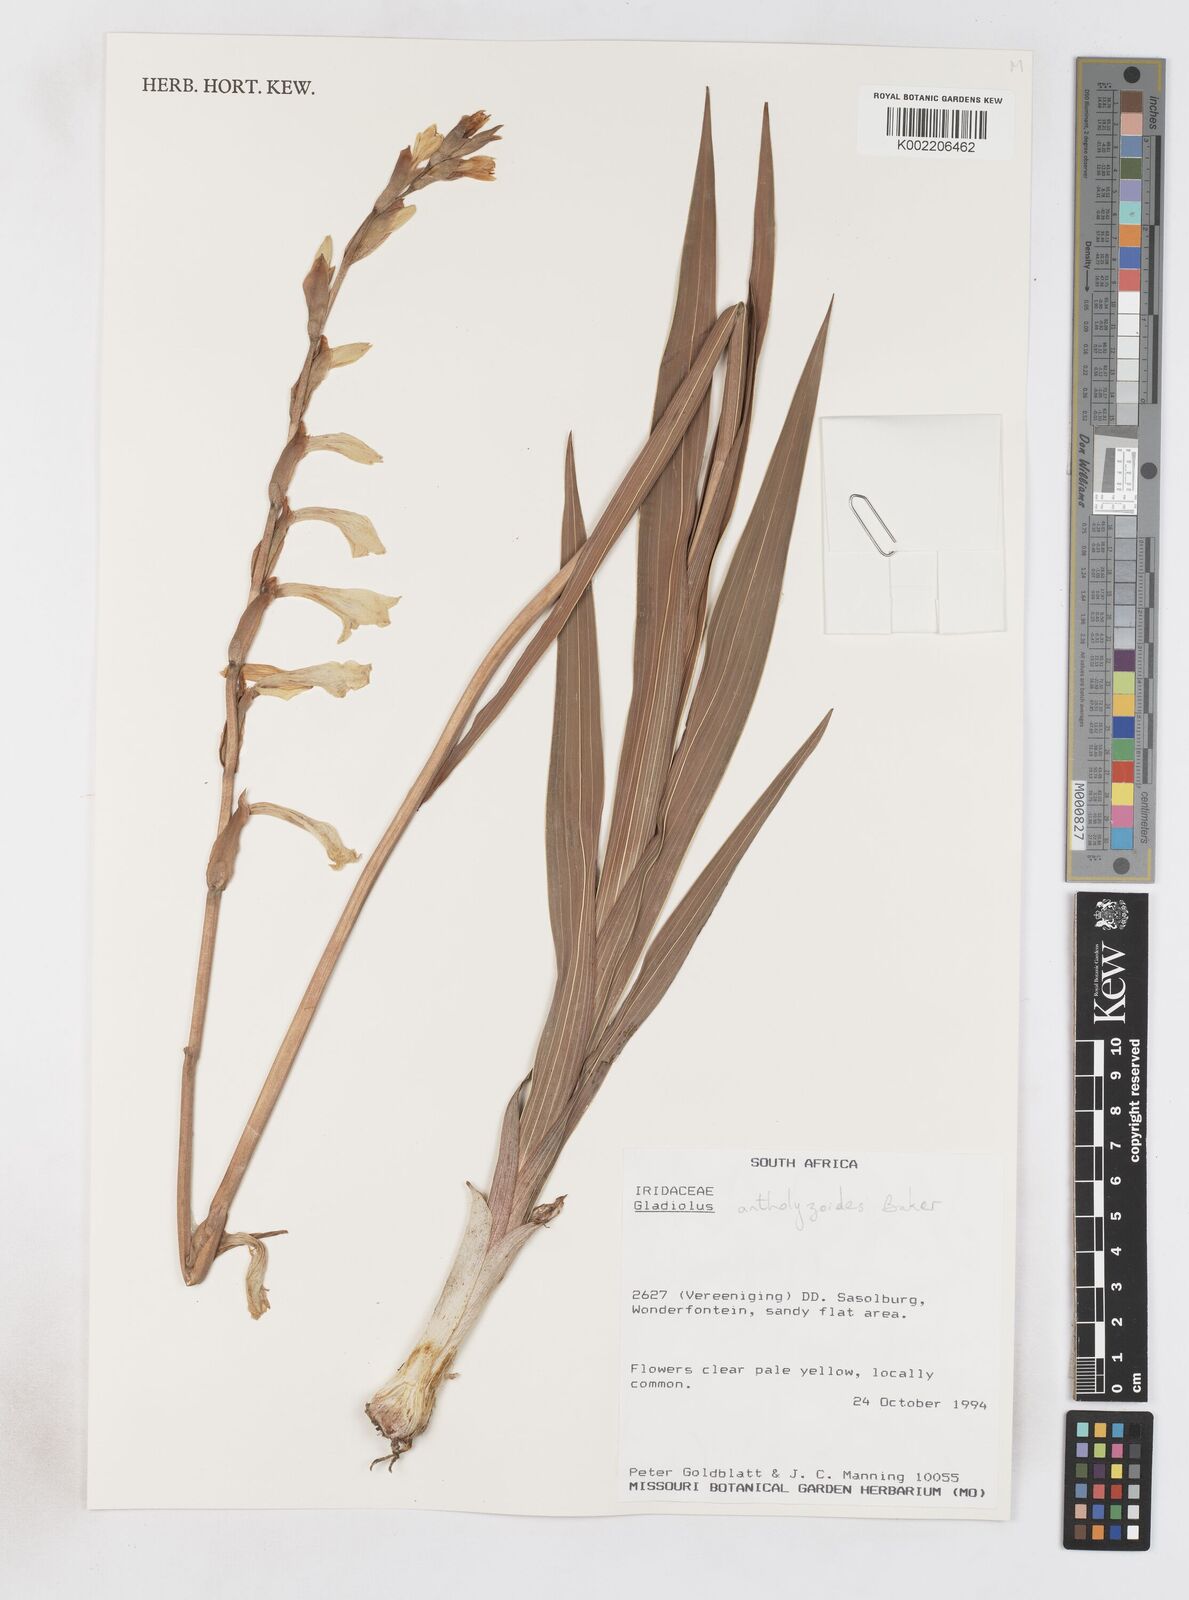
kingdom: Plantae
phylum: Tracheophyta
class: Liliopsida
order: Asparagales
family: Iridaceae
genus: Gladiolus
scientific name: Gladiolus antholyzoides
